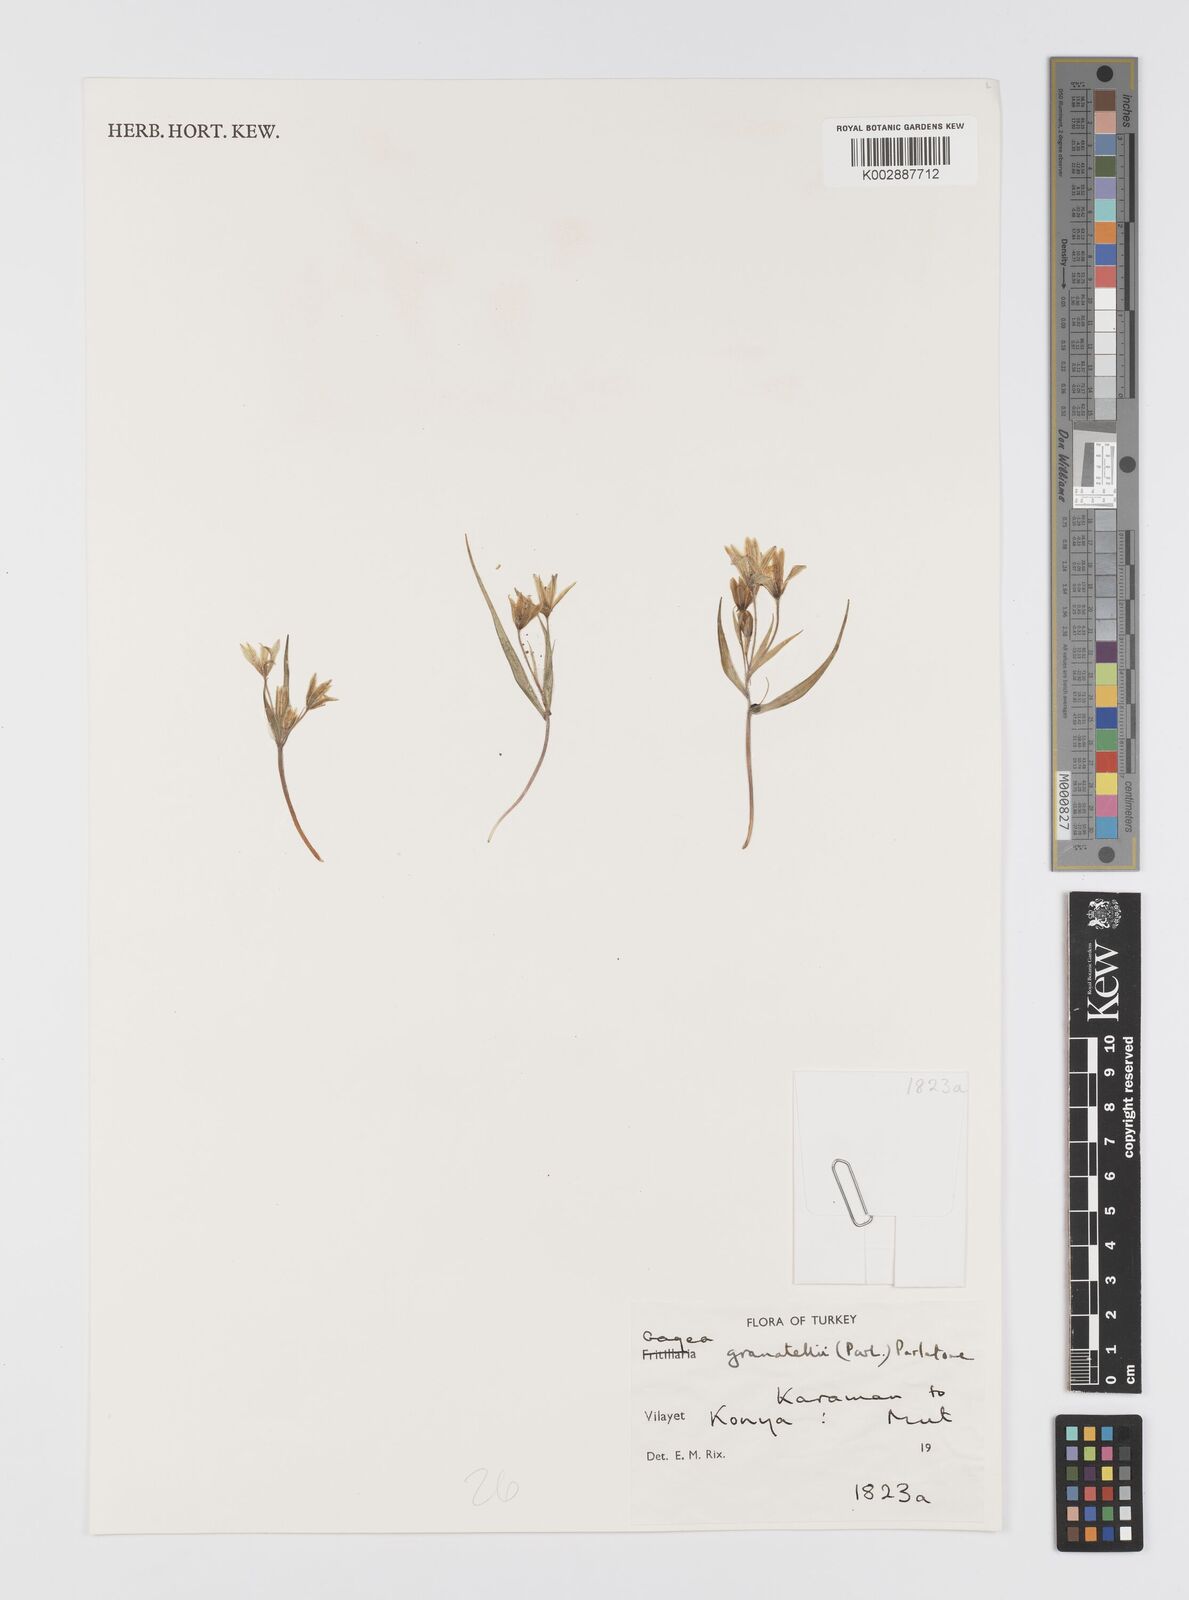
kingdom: Plantae
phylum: Tracheophyta
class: Liliopsida
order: Liliales
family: Liliaceae
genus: Gagea
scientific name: Gagea granatellii
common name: Granatelli’s gagea
